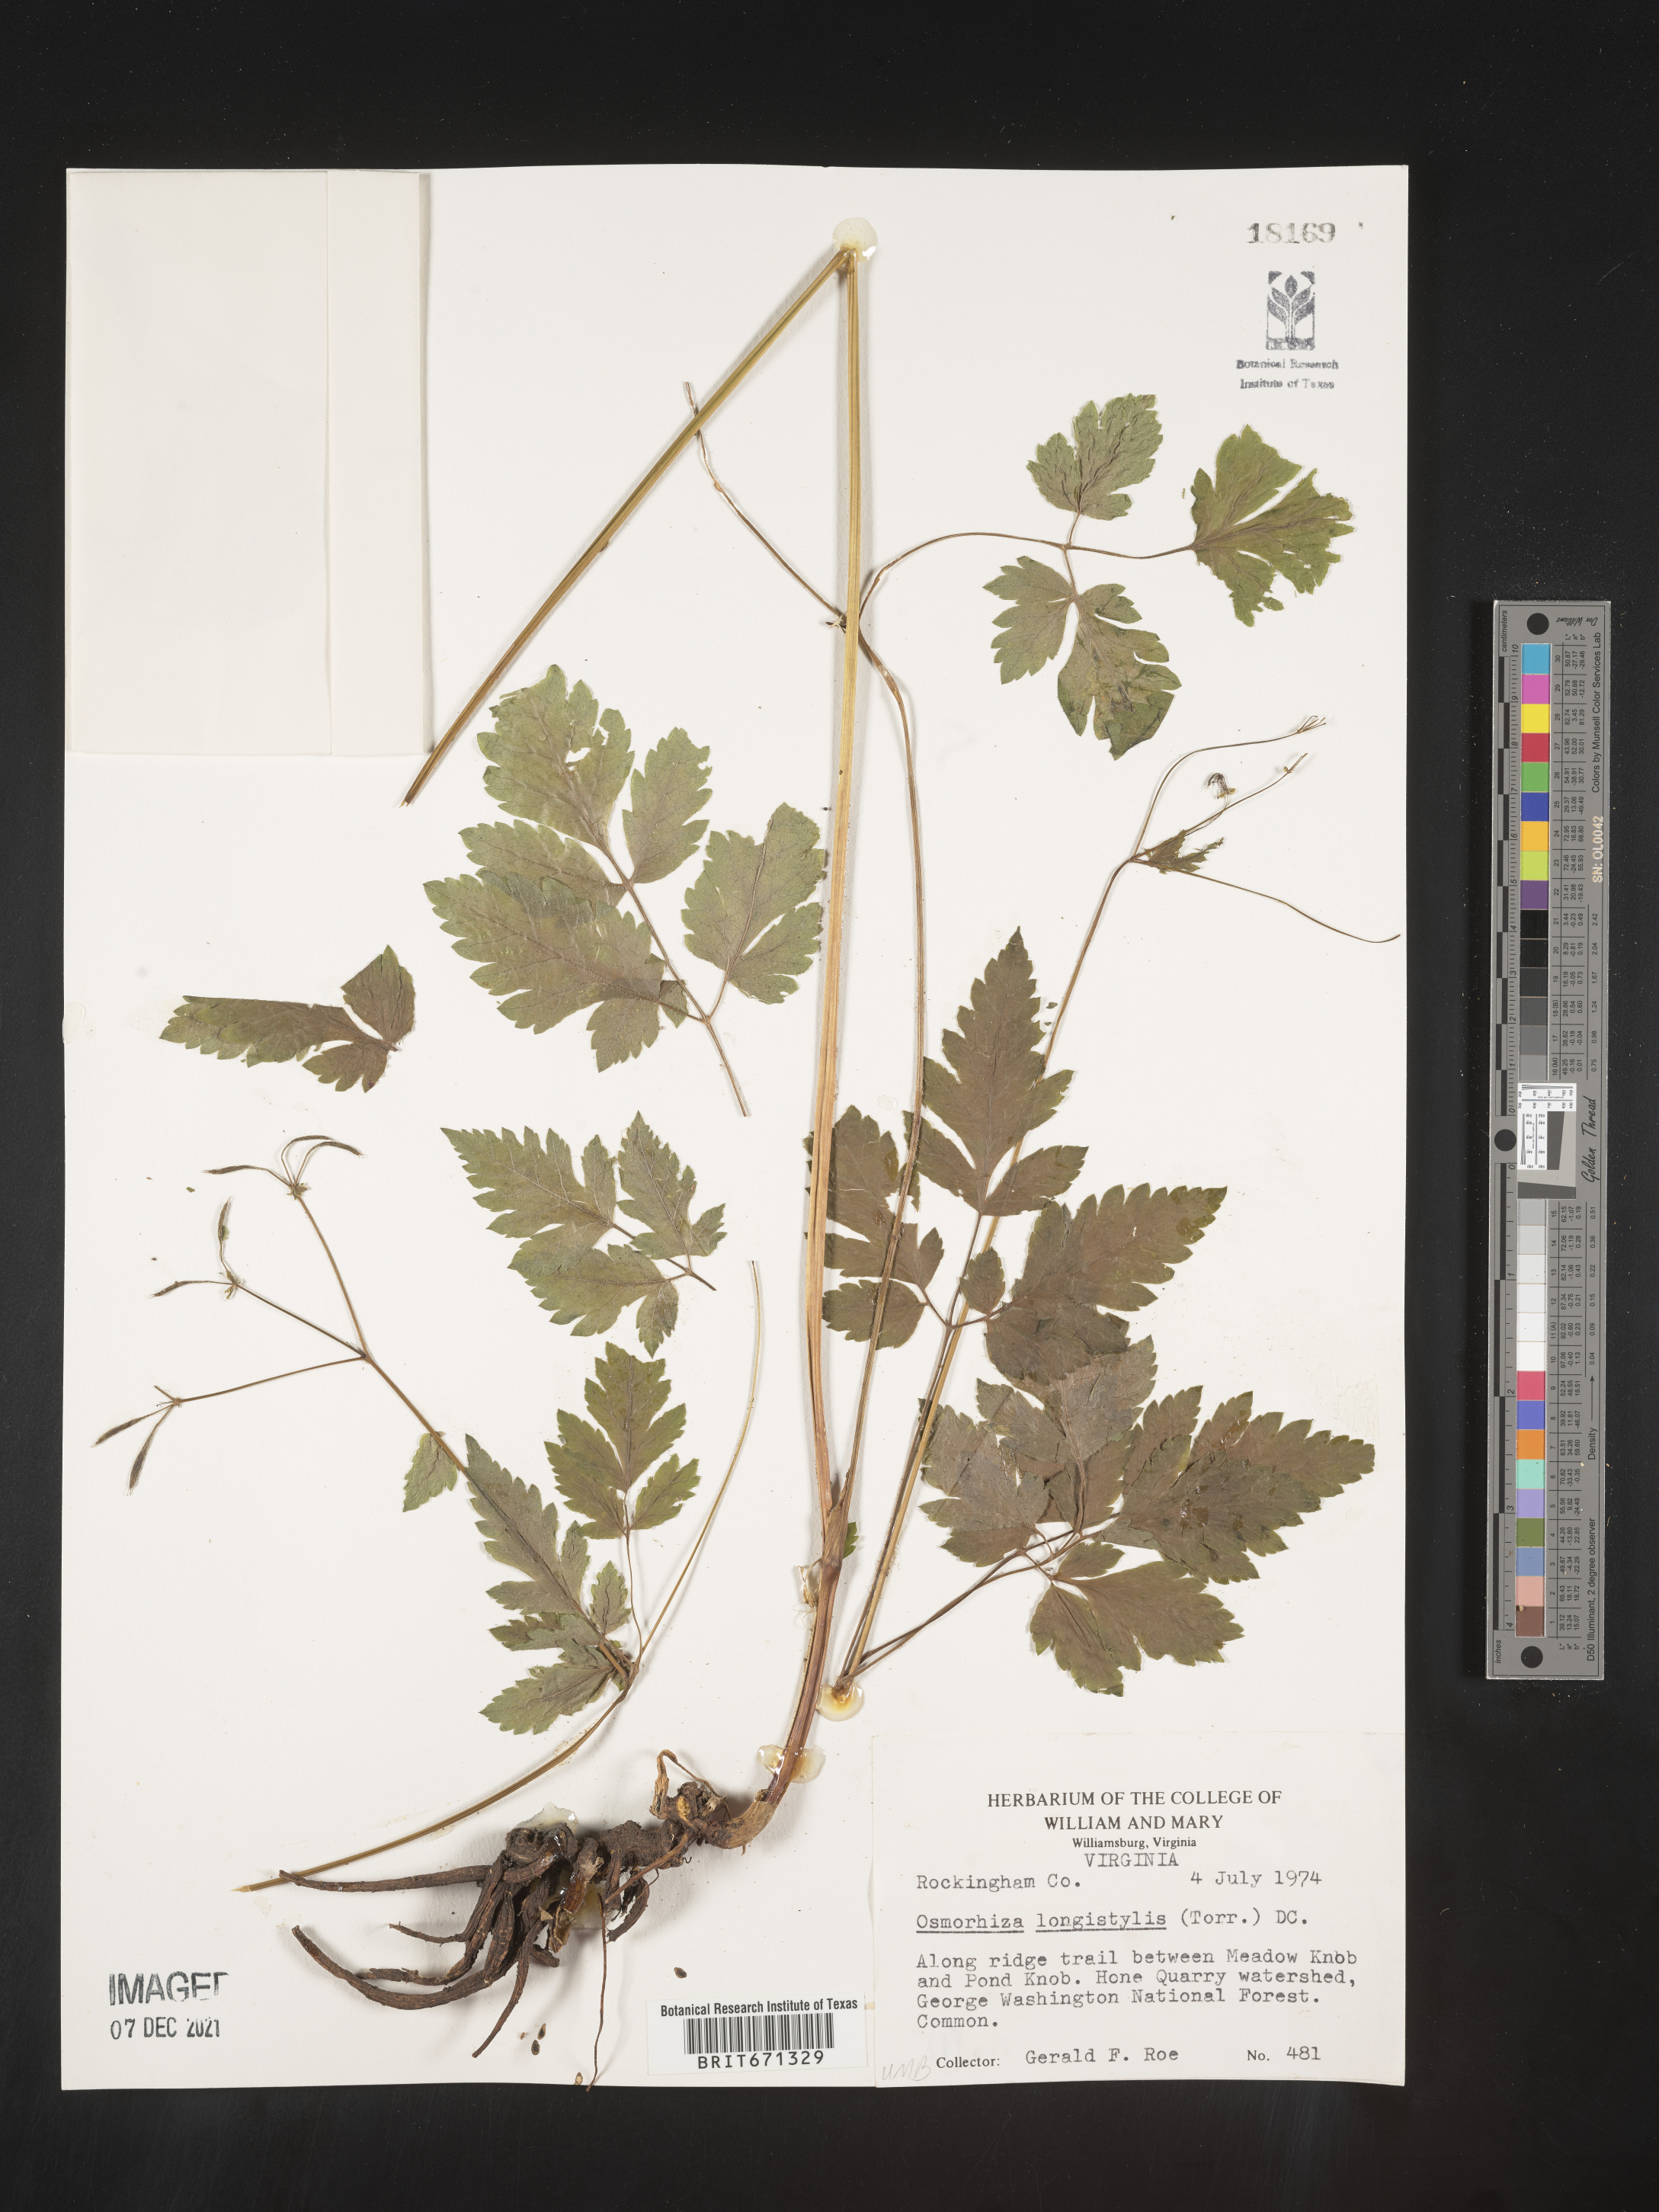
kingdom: Plantae
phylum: Tracheophyta
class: Magnoliopsida
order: Apiales
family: Apiaceae
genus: Osmorhiza
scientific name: Osmorhiza longistylis
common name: Smooth sweet cicely
